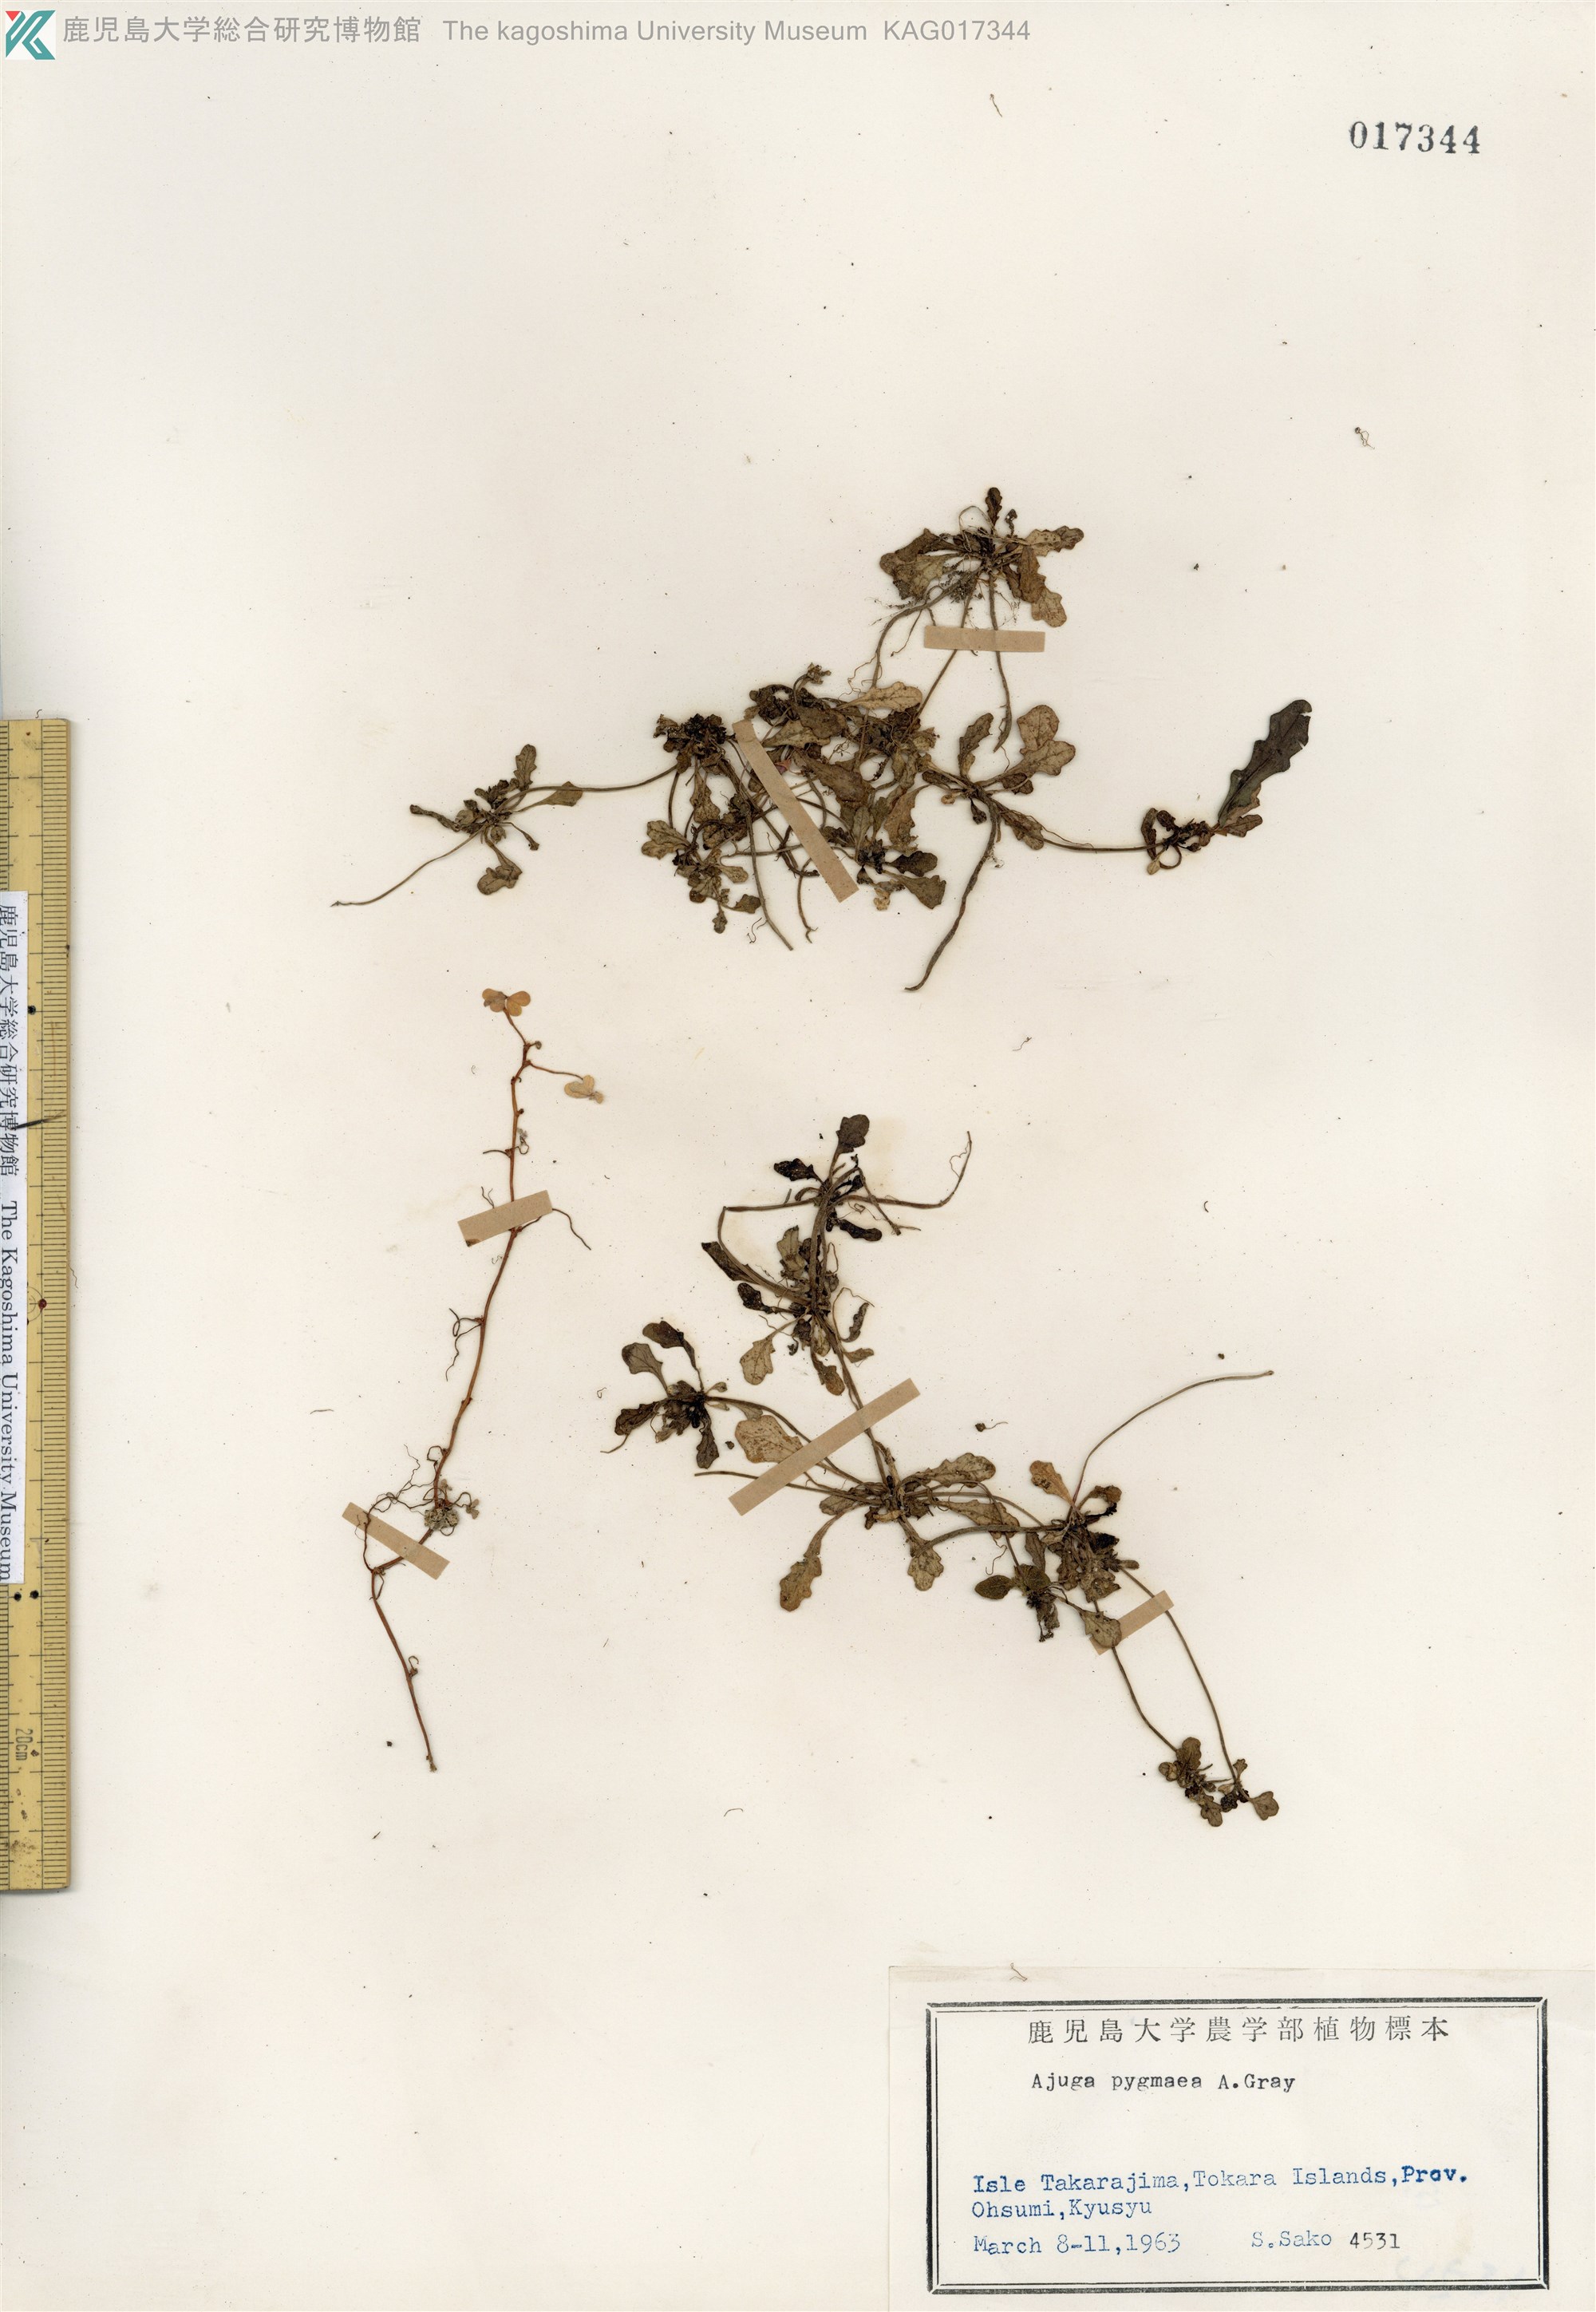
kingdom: Plantae
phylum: Tracheophyta
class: Magnoliopsida
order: Lamiales
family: Lamiaceae
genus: Ajuga
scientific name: Ajuga pygmaea
